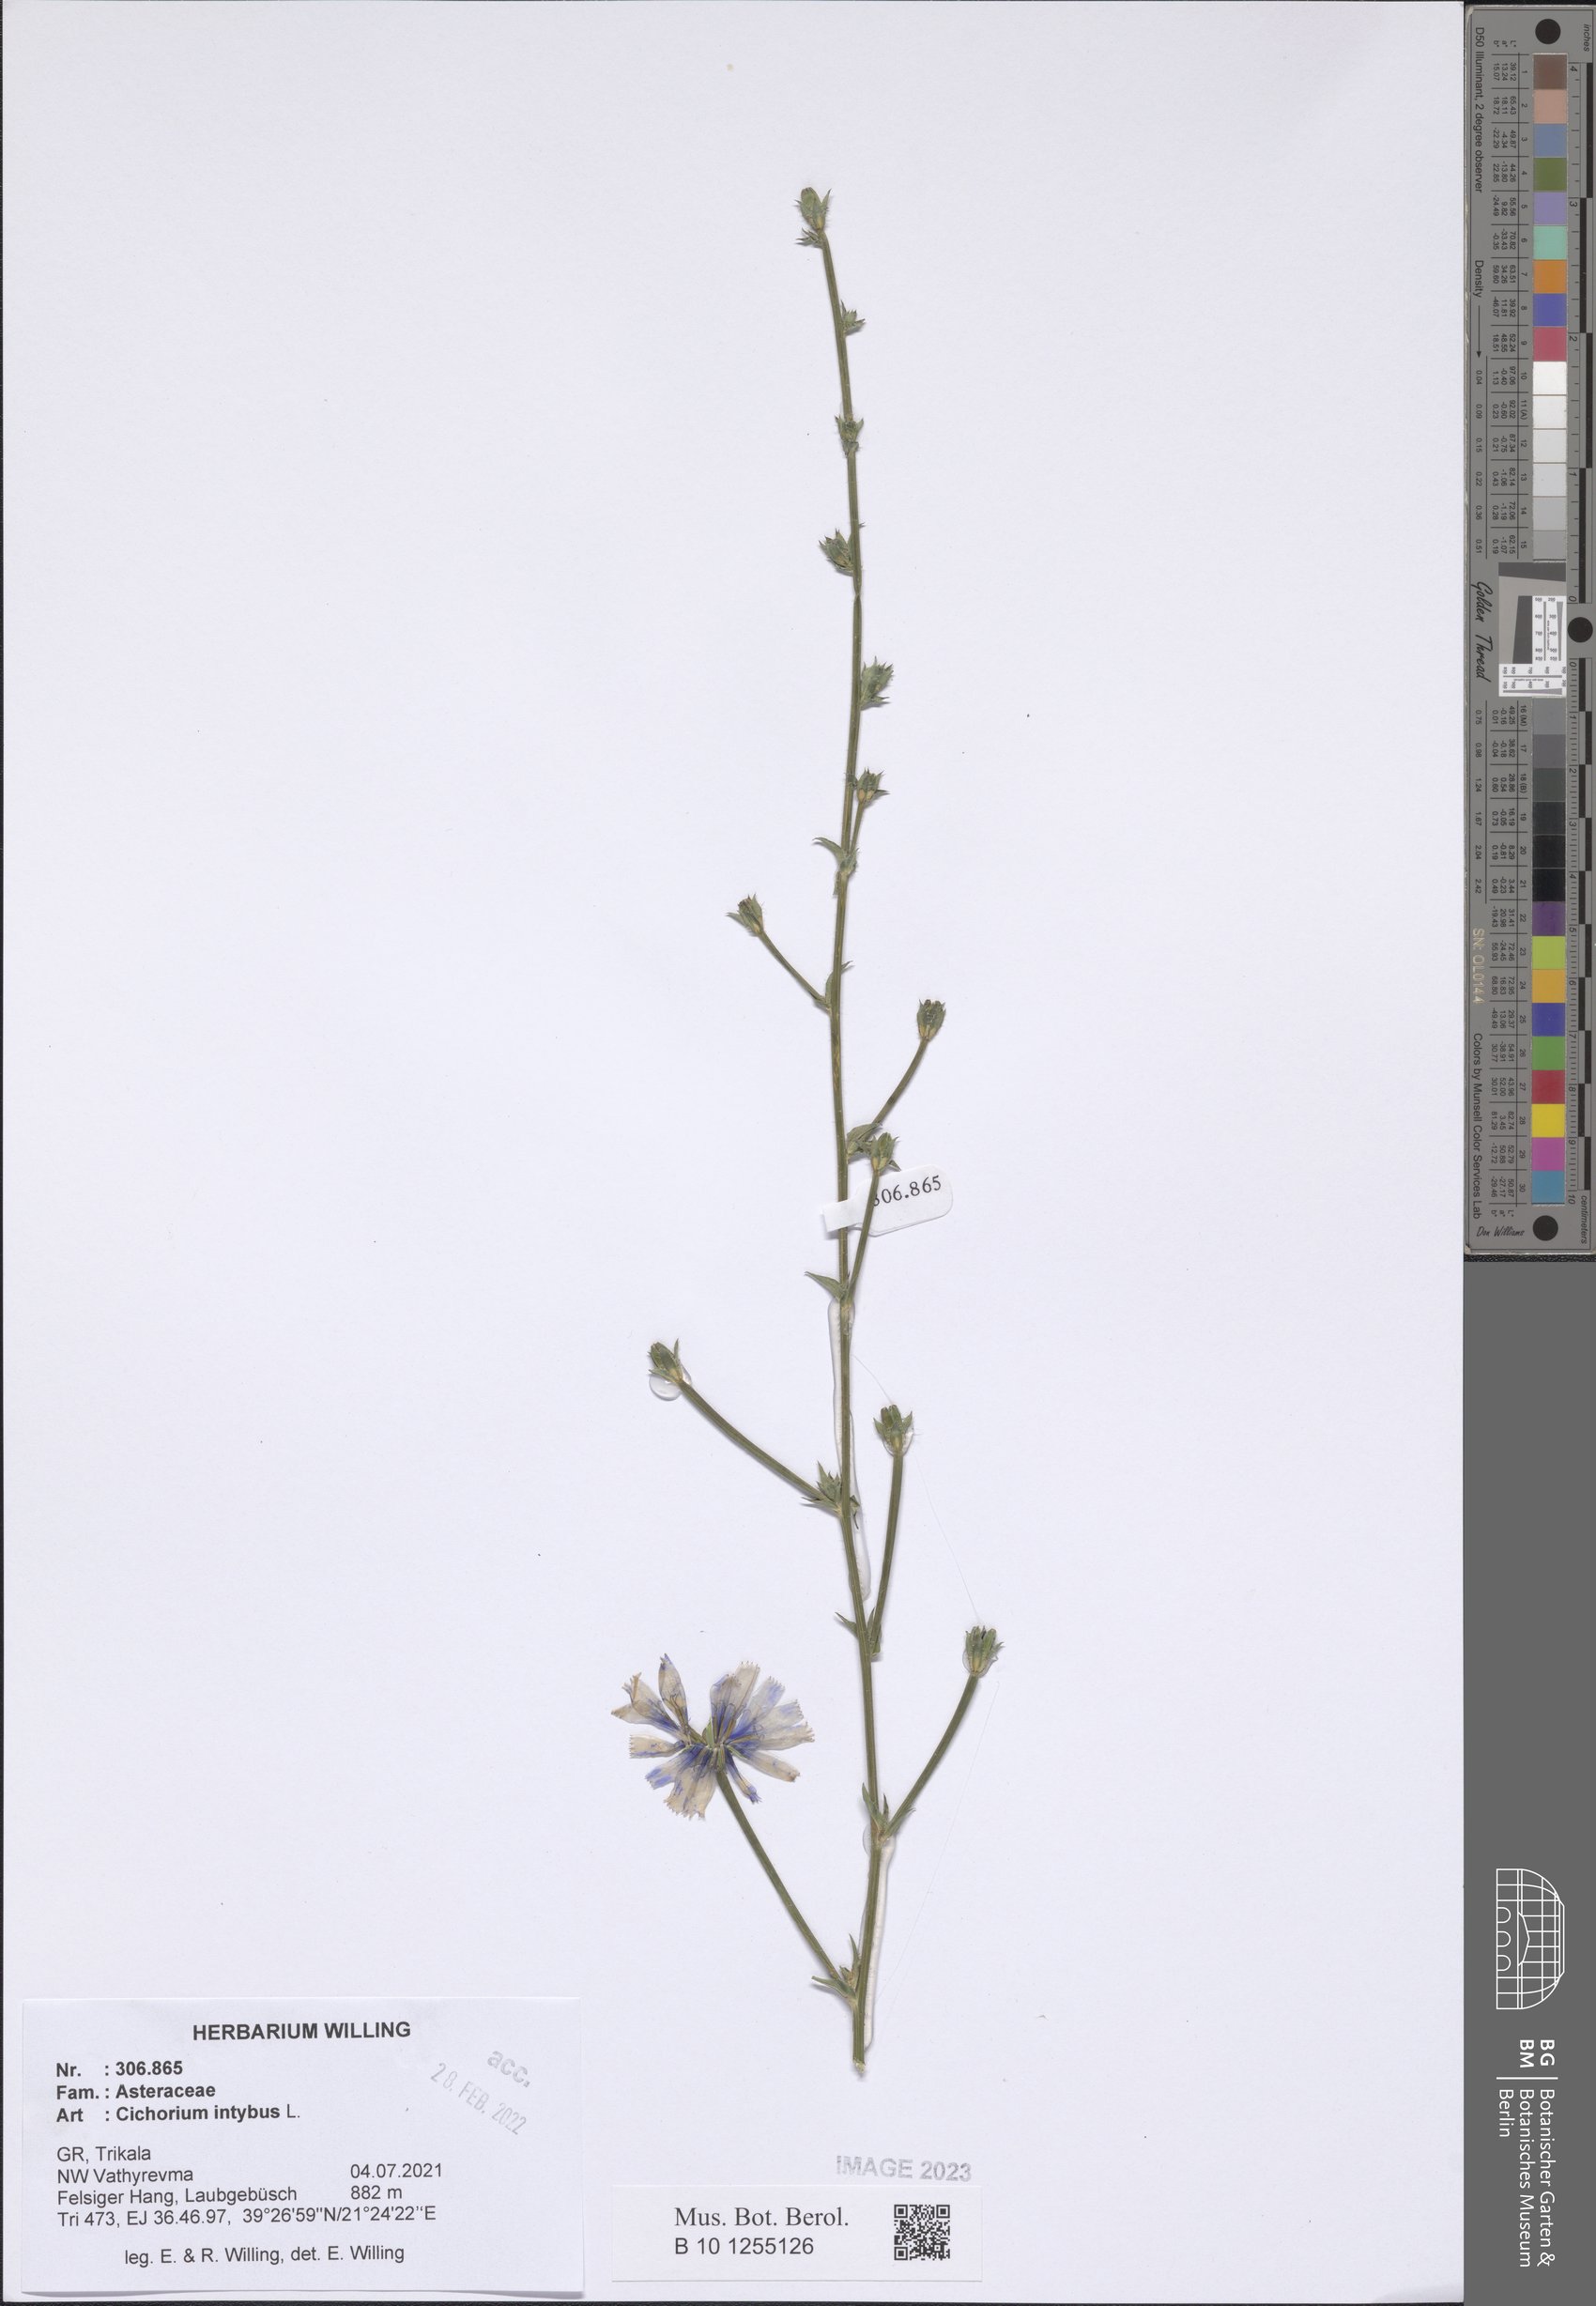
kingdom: Plantae
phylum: Tracheophyta
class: Magnoliopsida
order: Asterales
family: Asteraceae
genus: Cichorium
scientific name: Cichorium intybus
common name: Chicory
